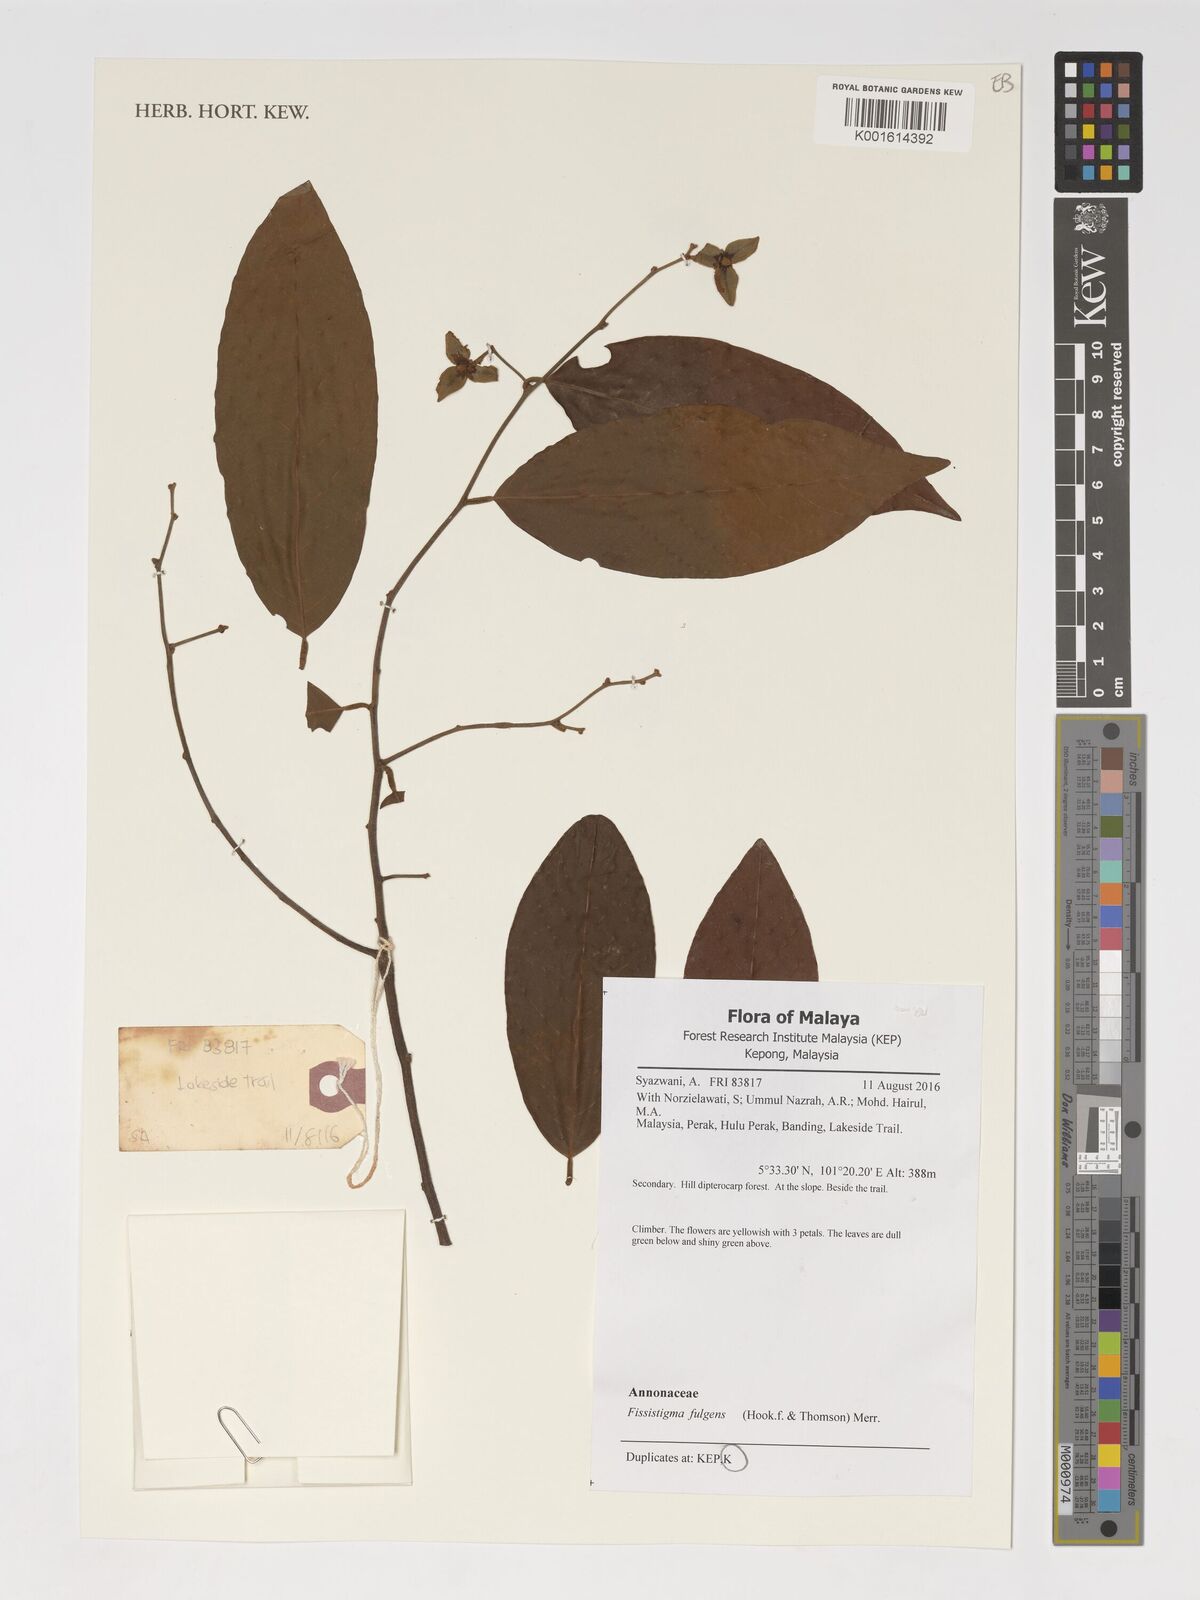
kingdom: Plantae
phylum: Tracheophyta
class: Magnoliopsida
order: Magnoliales
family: Annonaceae
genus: Fissistigma
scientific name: Fissistigma fulgens
